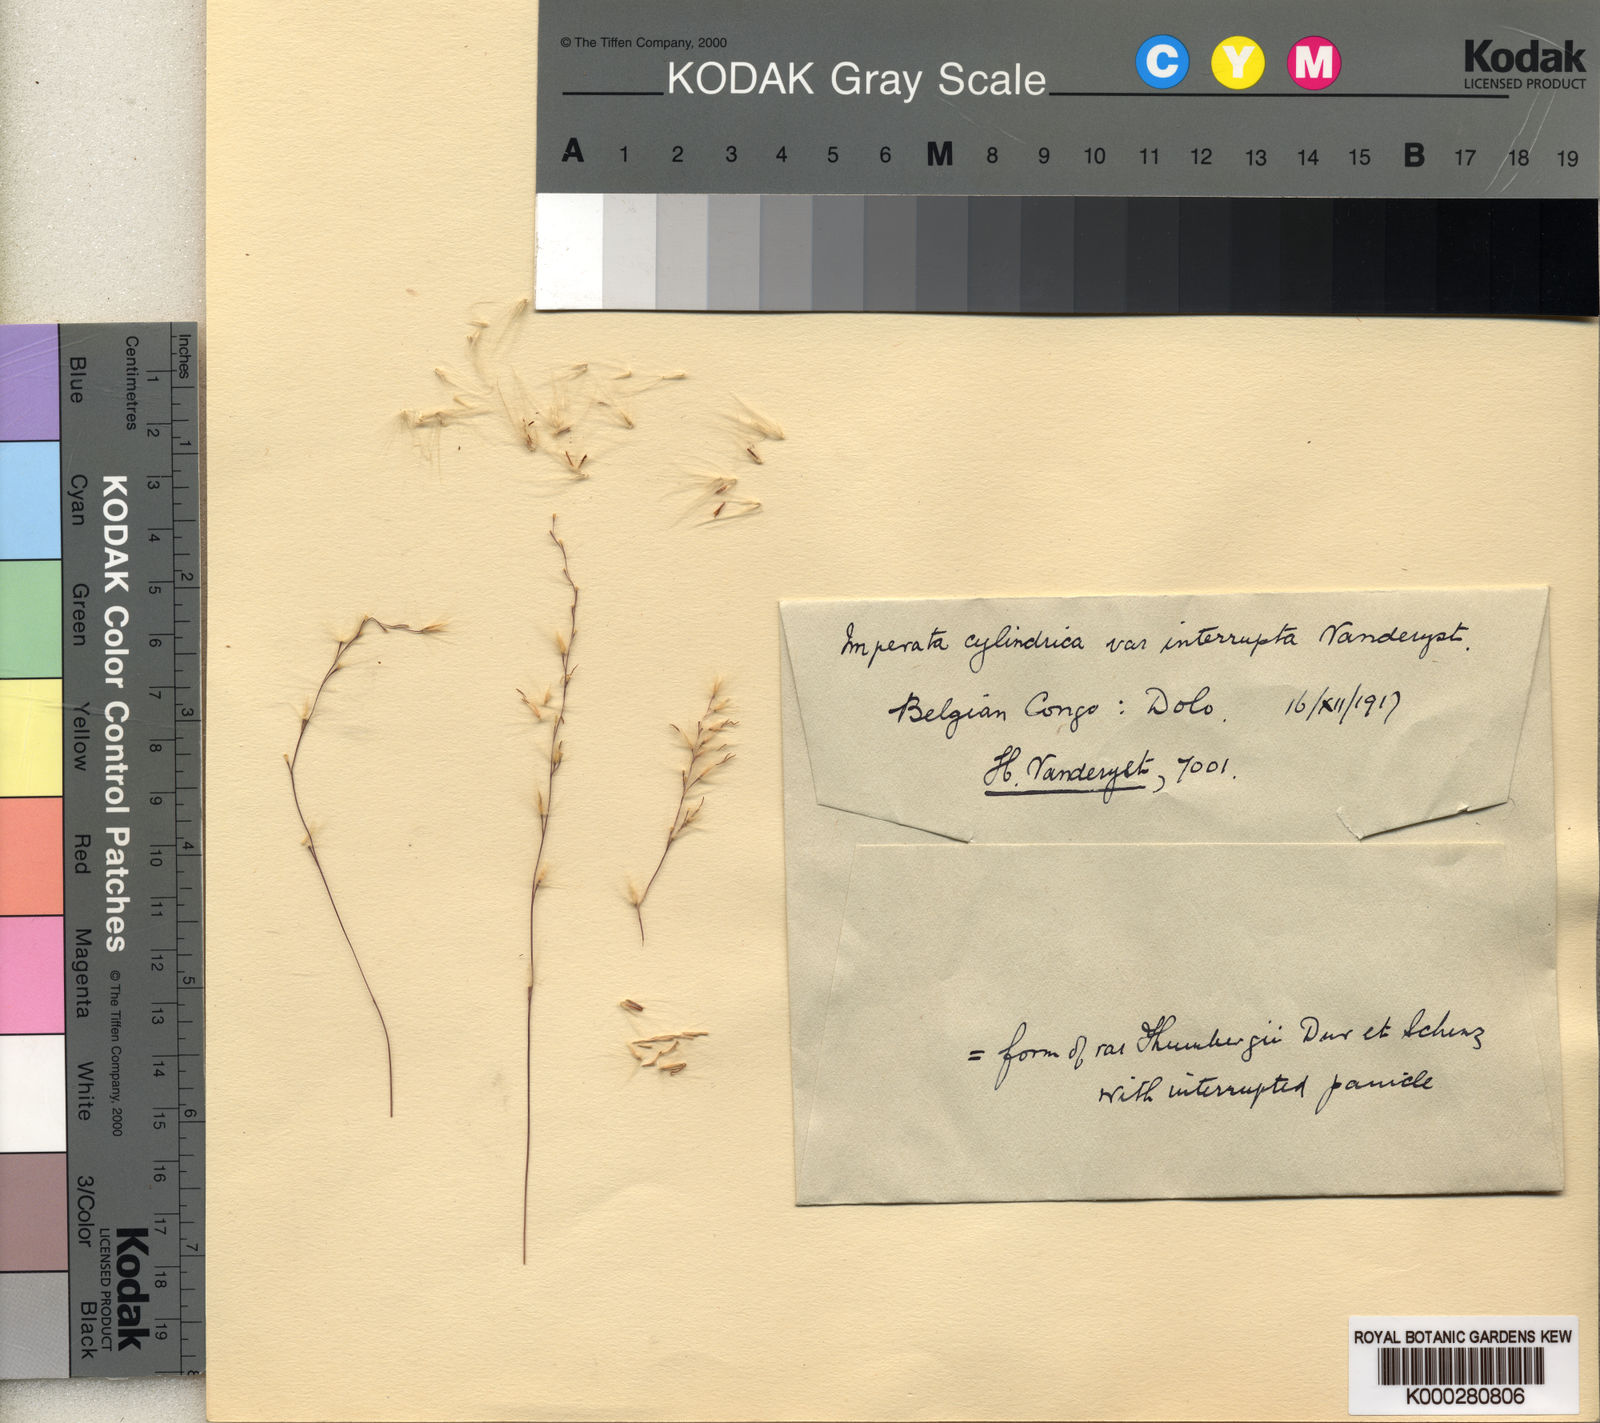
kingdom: Plantae
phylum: Tracheophyta
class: Liliopsida
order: Poales
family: Poaceae
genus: Imperata
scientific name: Imperata
